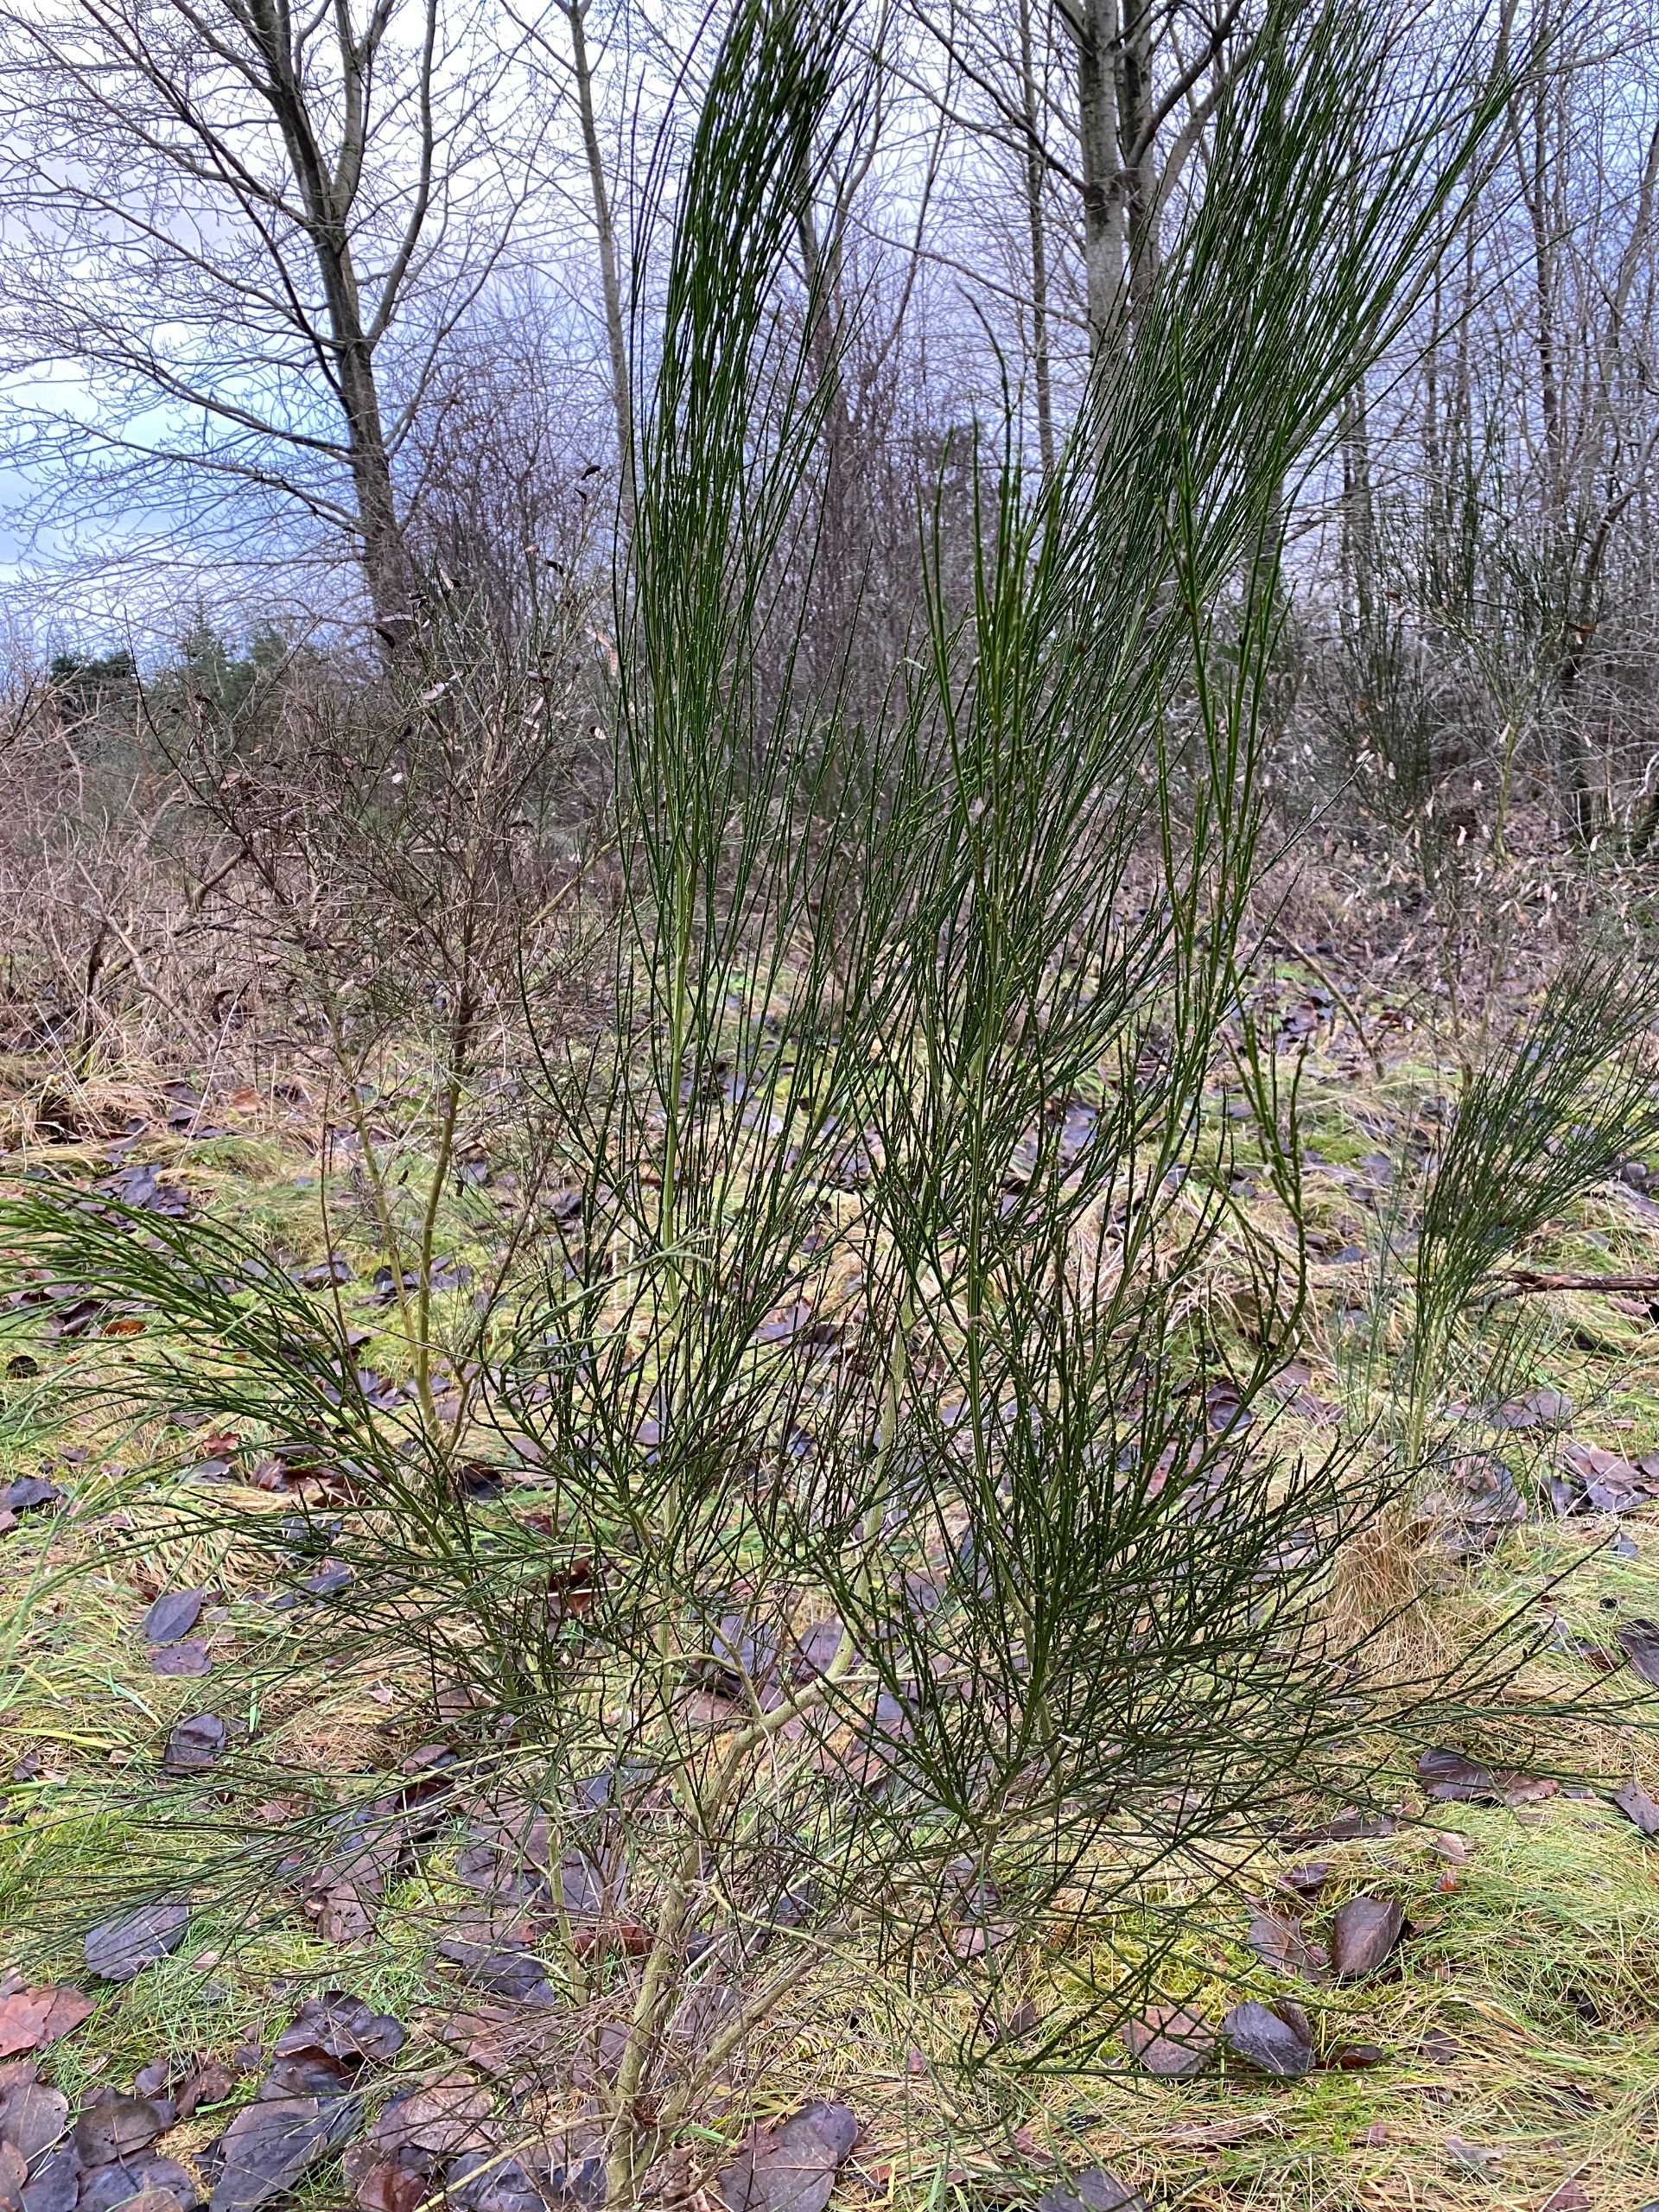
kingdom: Plantae
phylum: Tracheophyta
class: Magnoliopsida
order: Fabales
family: Fabaceae
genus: Cytisus
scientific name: Cytisus scoparius
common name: Almindelig gyvel
